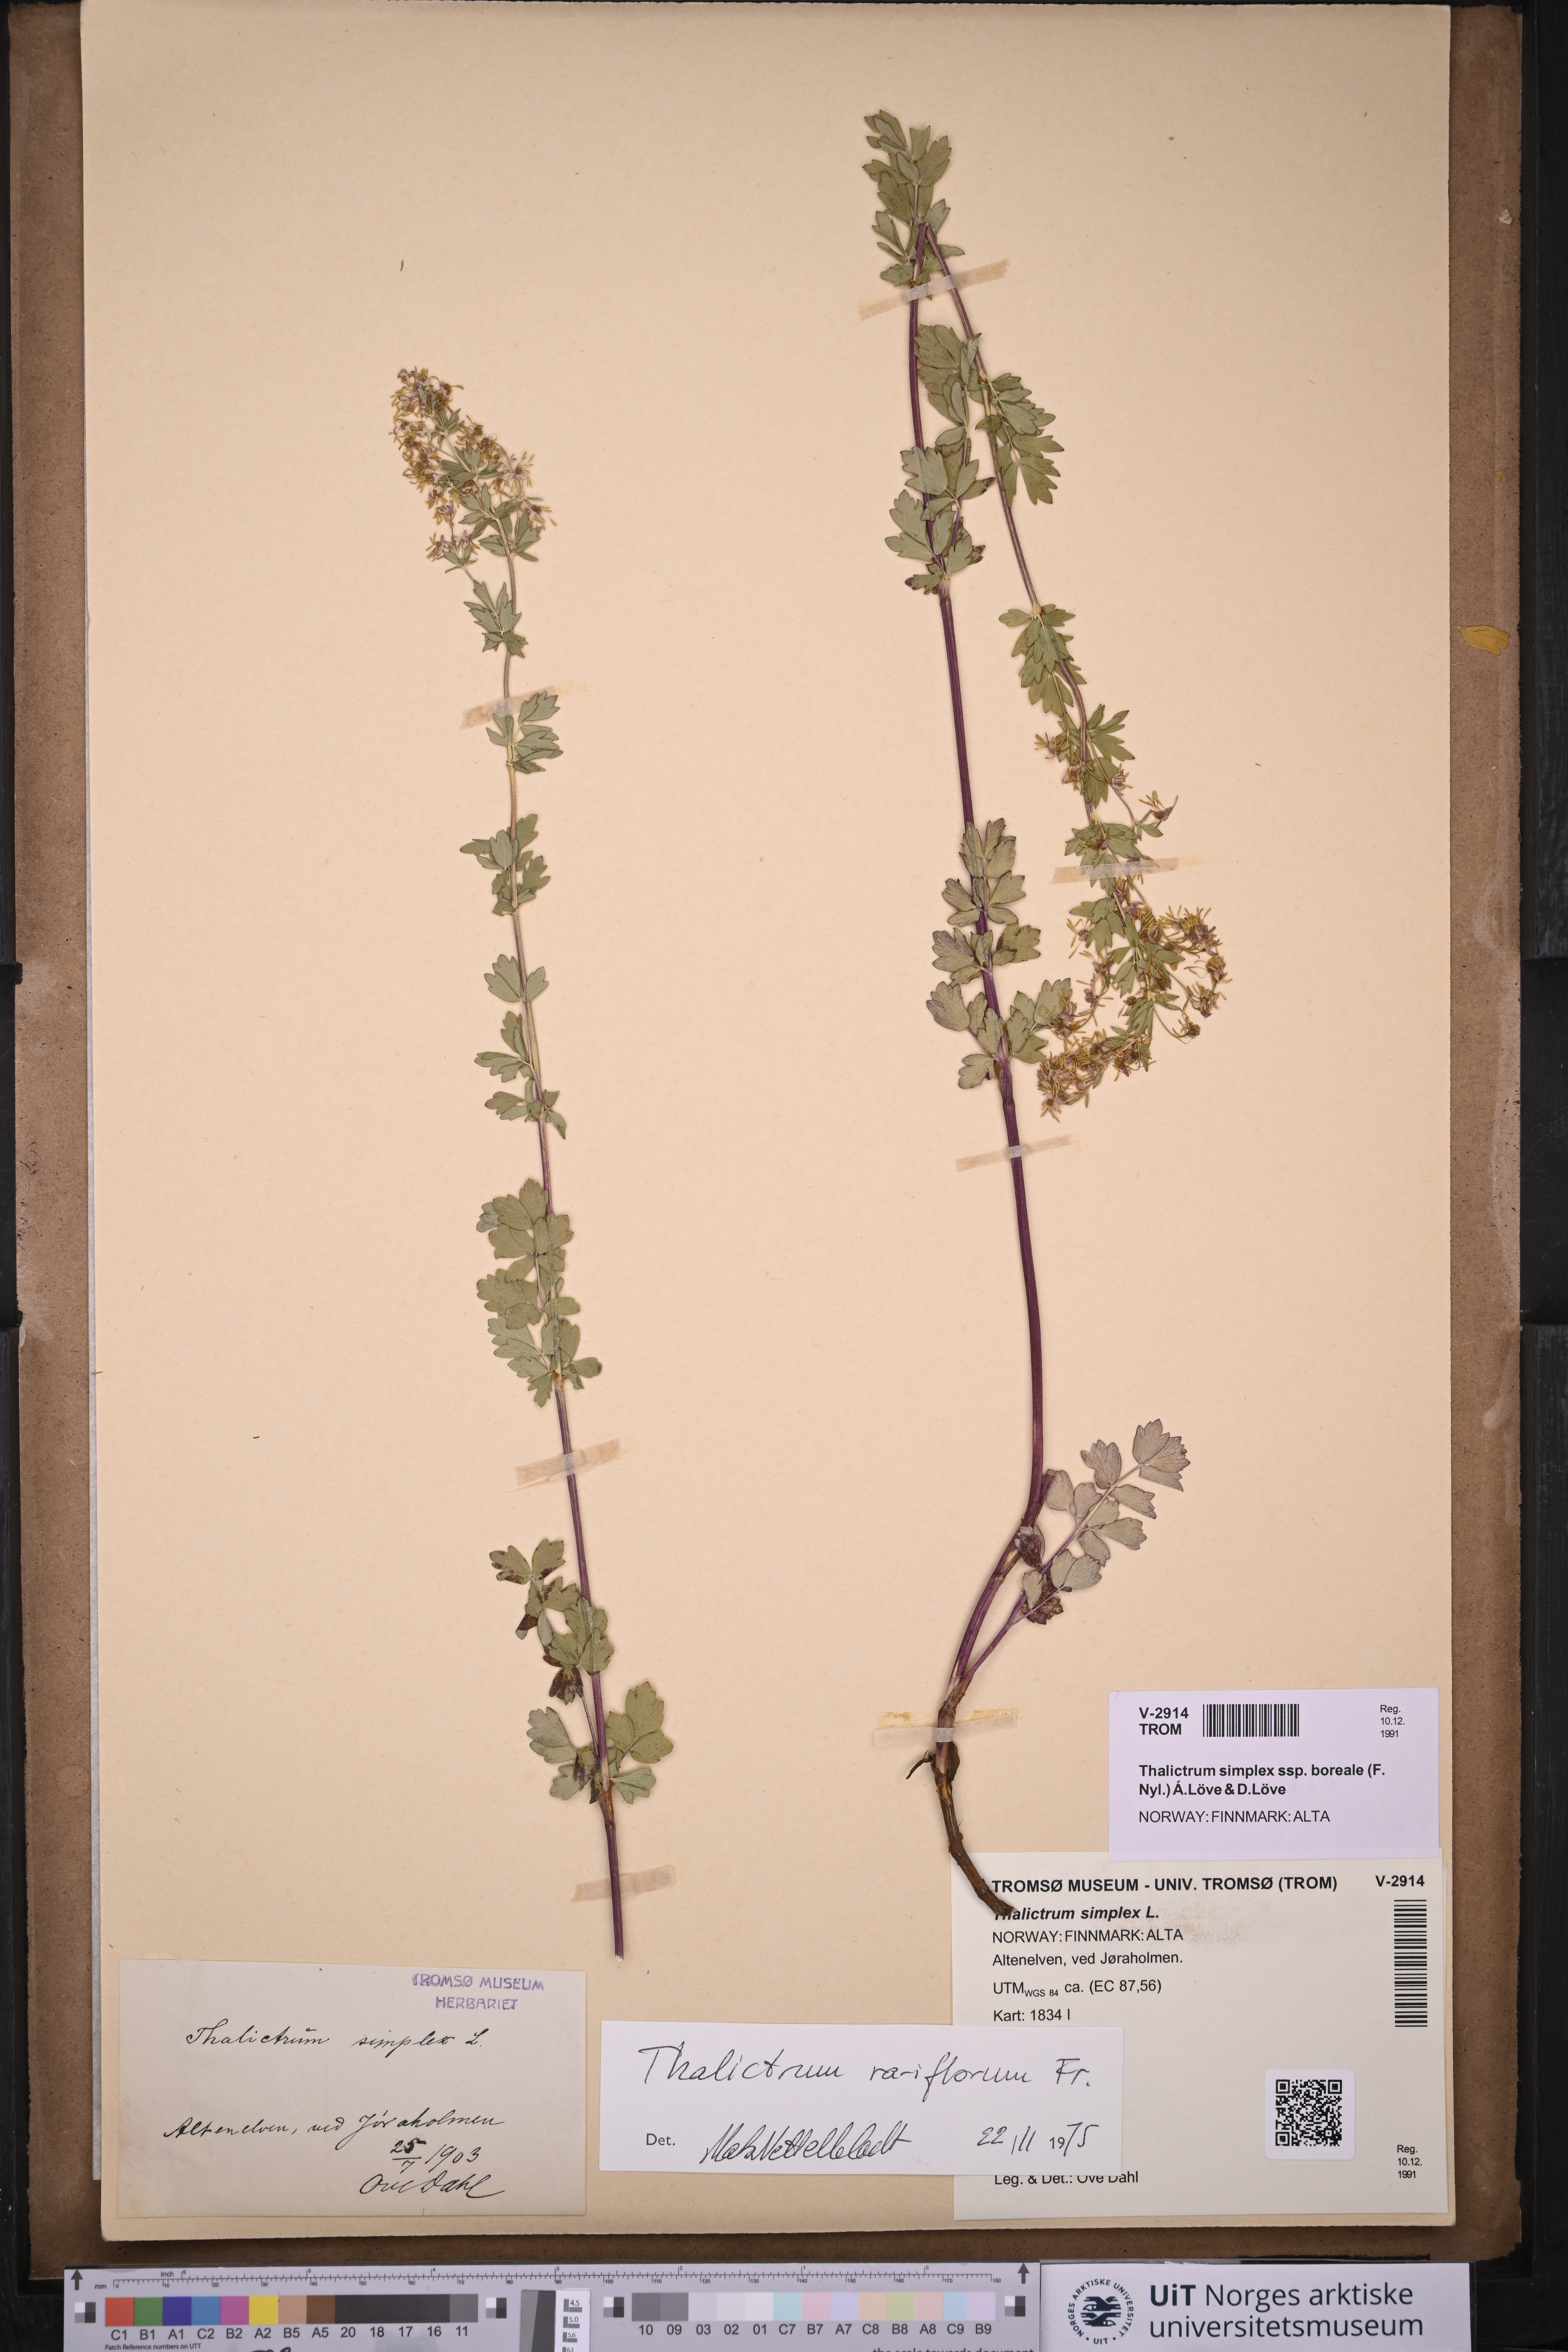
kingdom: Plantae
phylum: Tracheophyta
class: Magnoliopsida
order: Ranunculales
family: Ranunculaceae
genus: Thalictrum
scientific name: Thalictrum simplex
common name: Small meadow-rue
